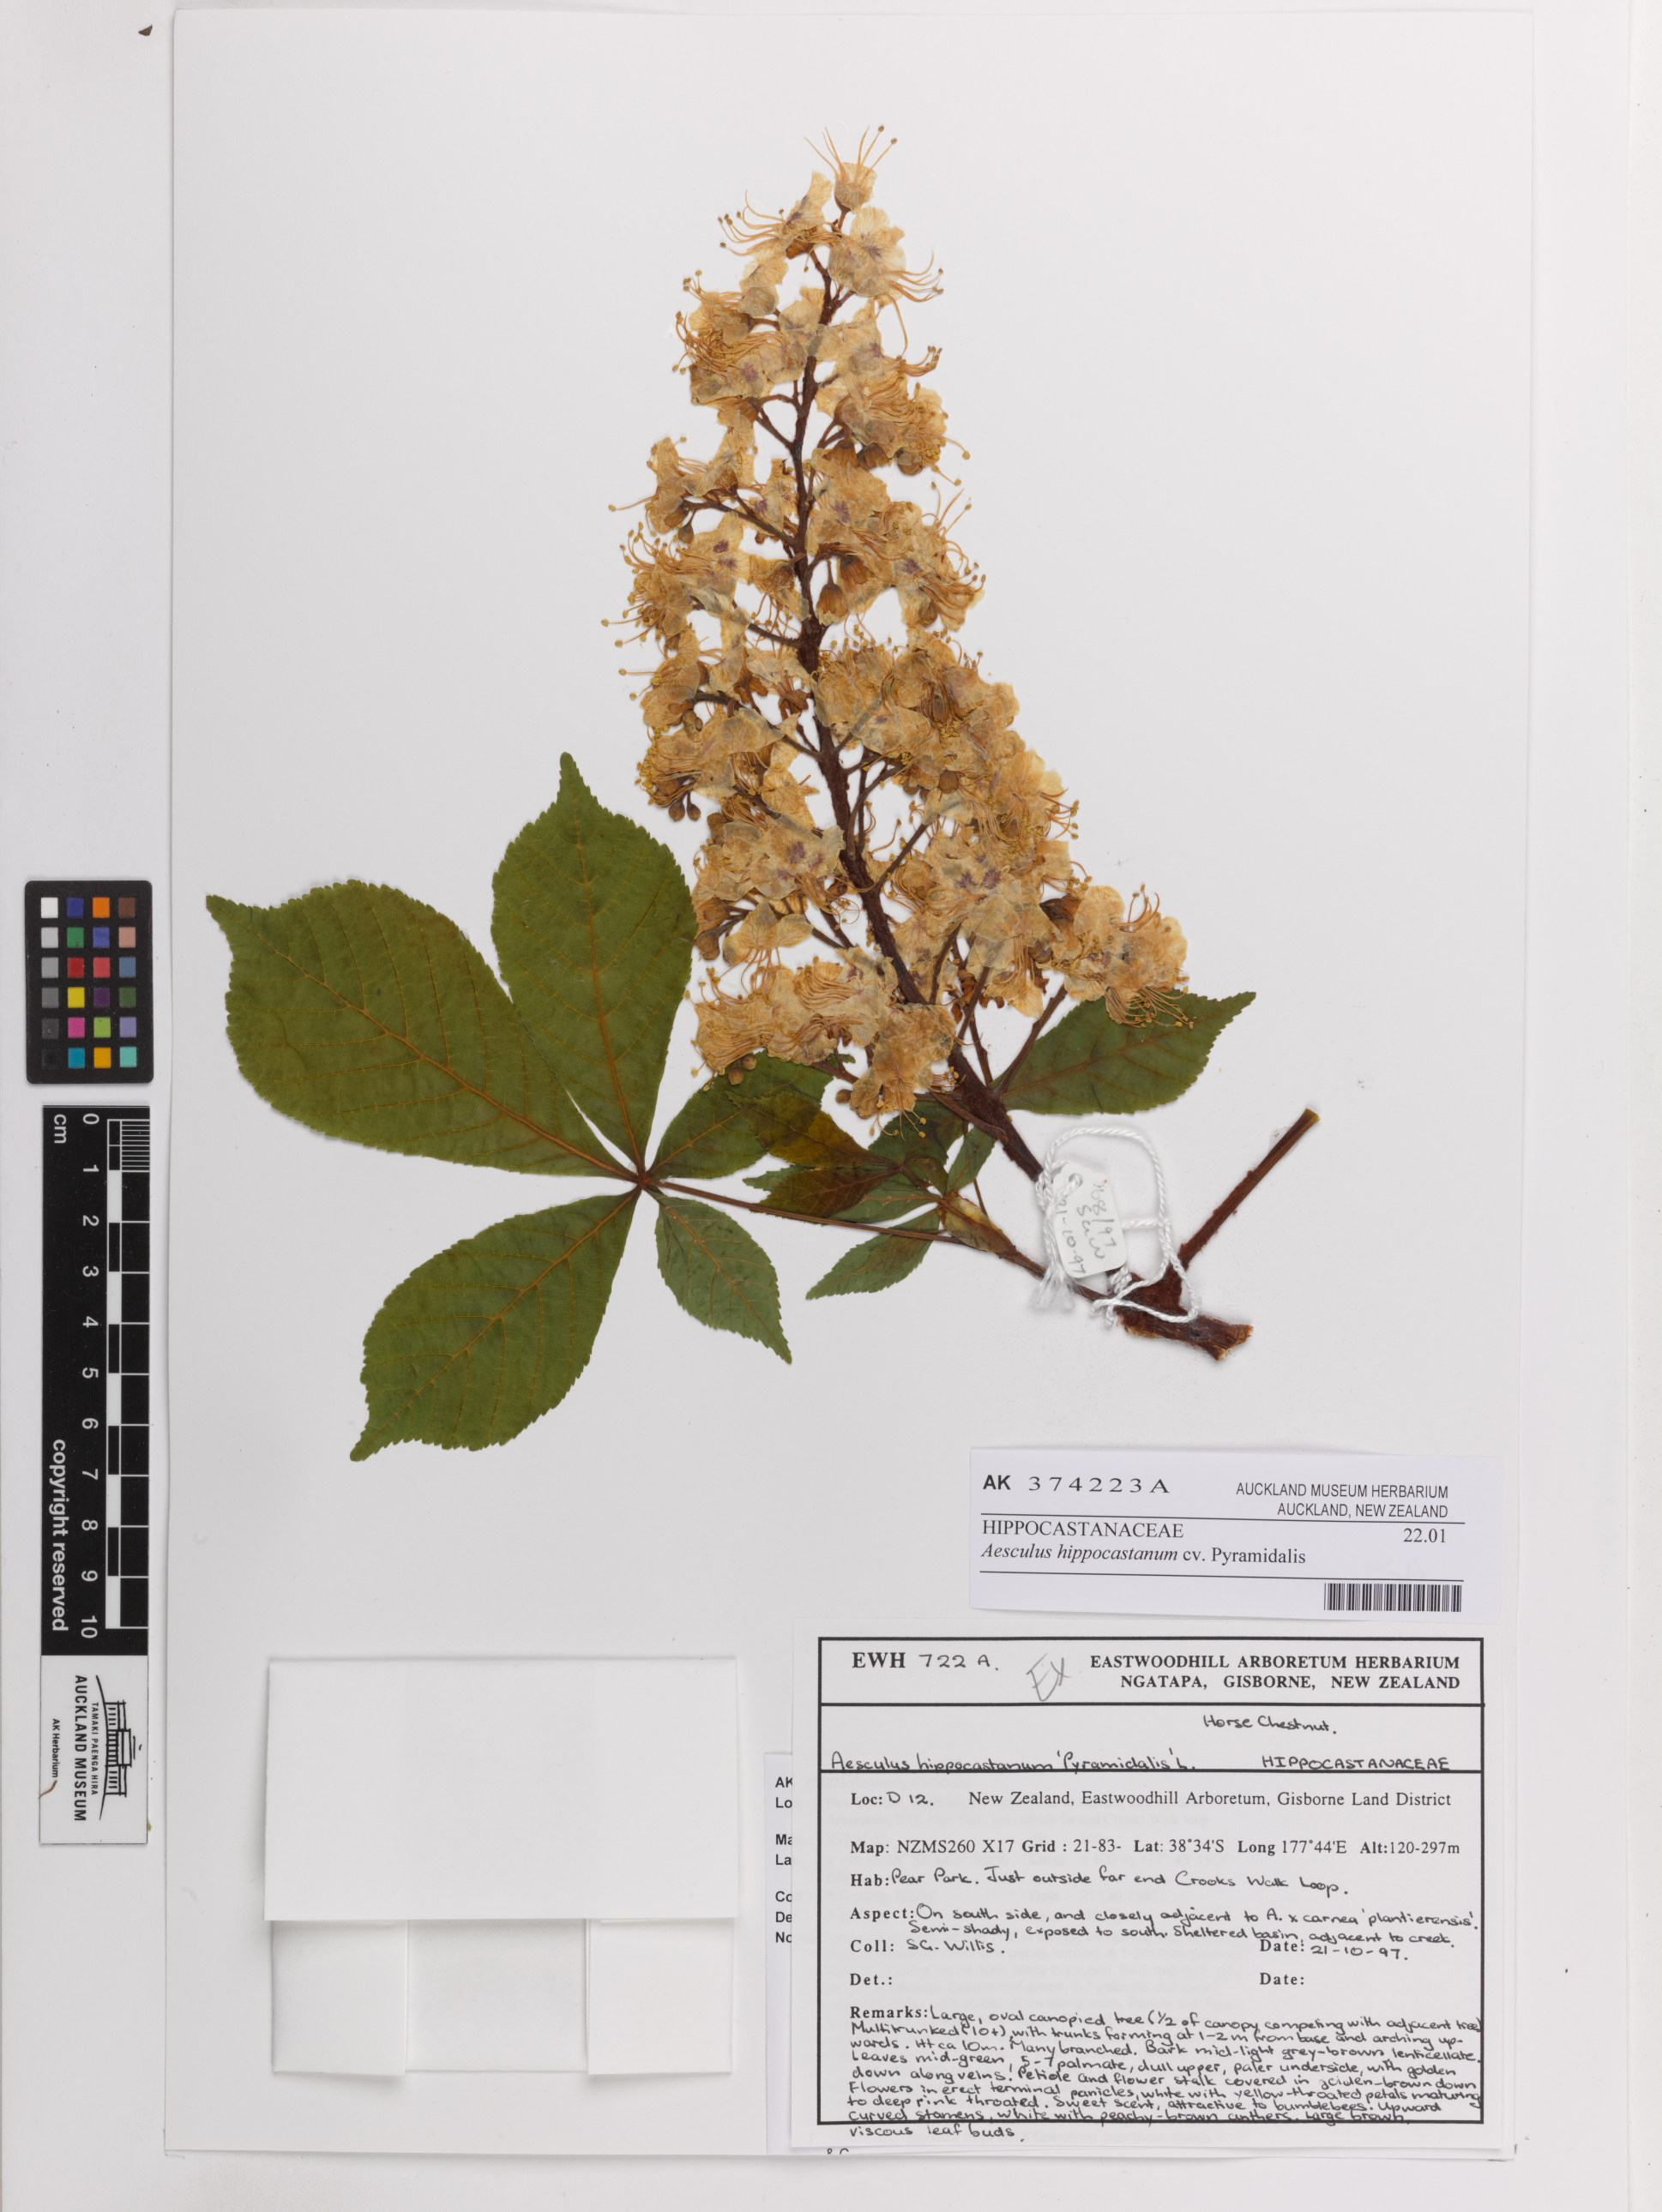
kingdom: Plantae
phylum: Tracheophyta
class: Magnoliopsida
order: Sapindales
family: Sapindaceae
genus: Aesculus
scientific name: Aesculus hippocastanum
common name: Horse-chestnut
